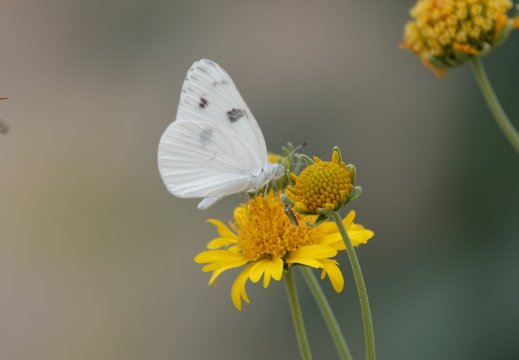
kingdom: Animalia
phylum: Arthropoda
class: Insecta
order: Lepidoptera
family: Pieridae
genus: Pontia
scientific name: Pontia protodice
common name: Checkered White
